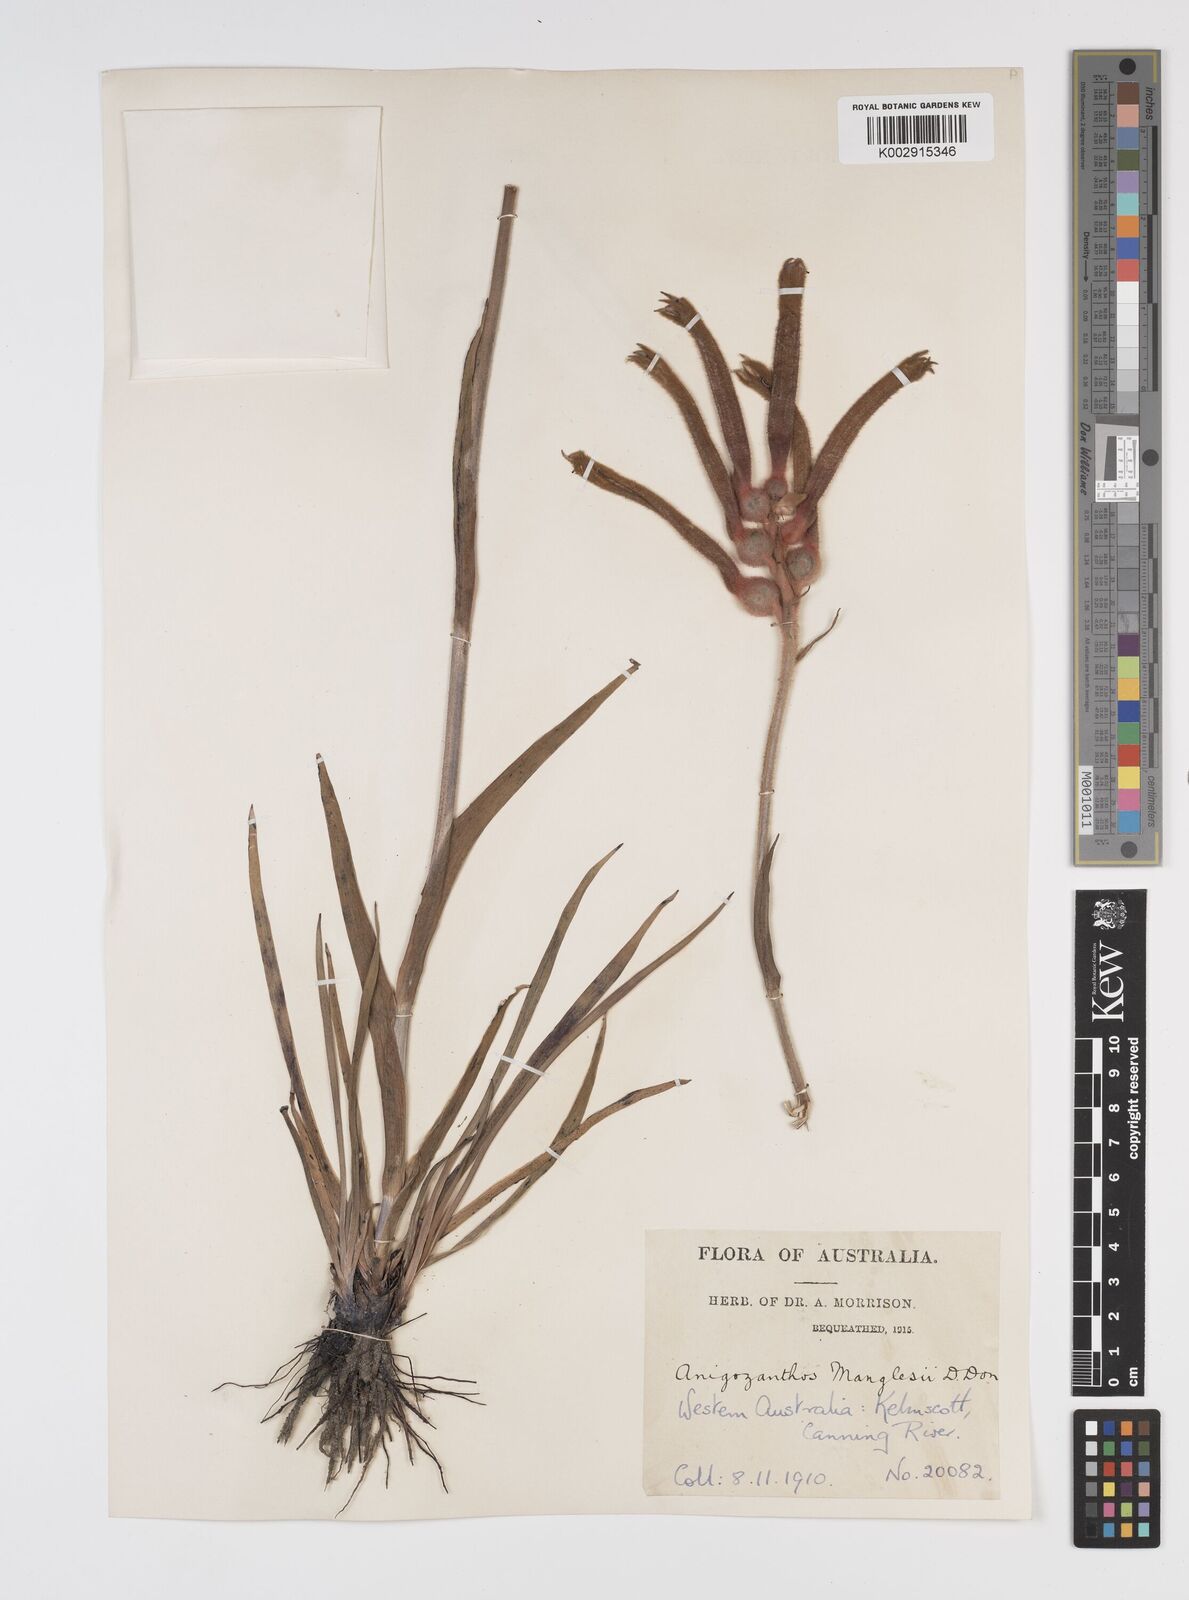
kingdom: Plantae
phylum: Tracheophyta
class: Liliopsida
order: Commelinales
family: Haemodoraceae
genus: Anigozanthos
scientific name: Anigozanthos manglesii
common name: Mangles's kangaroo-paw
